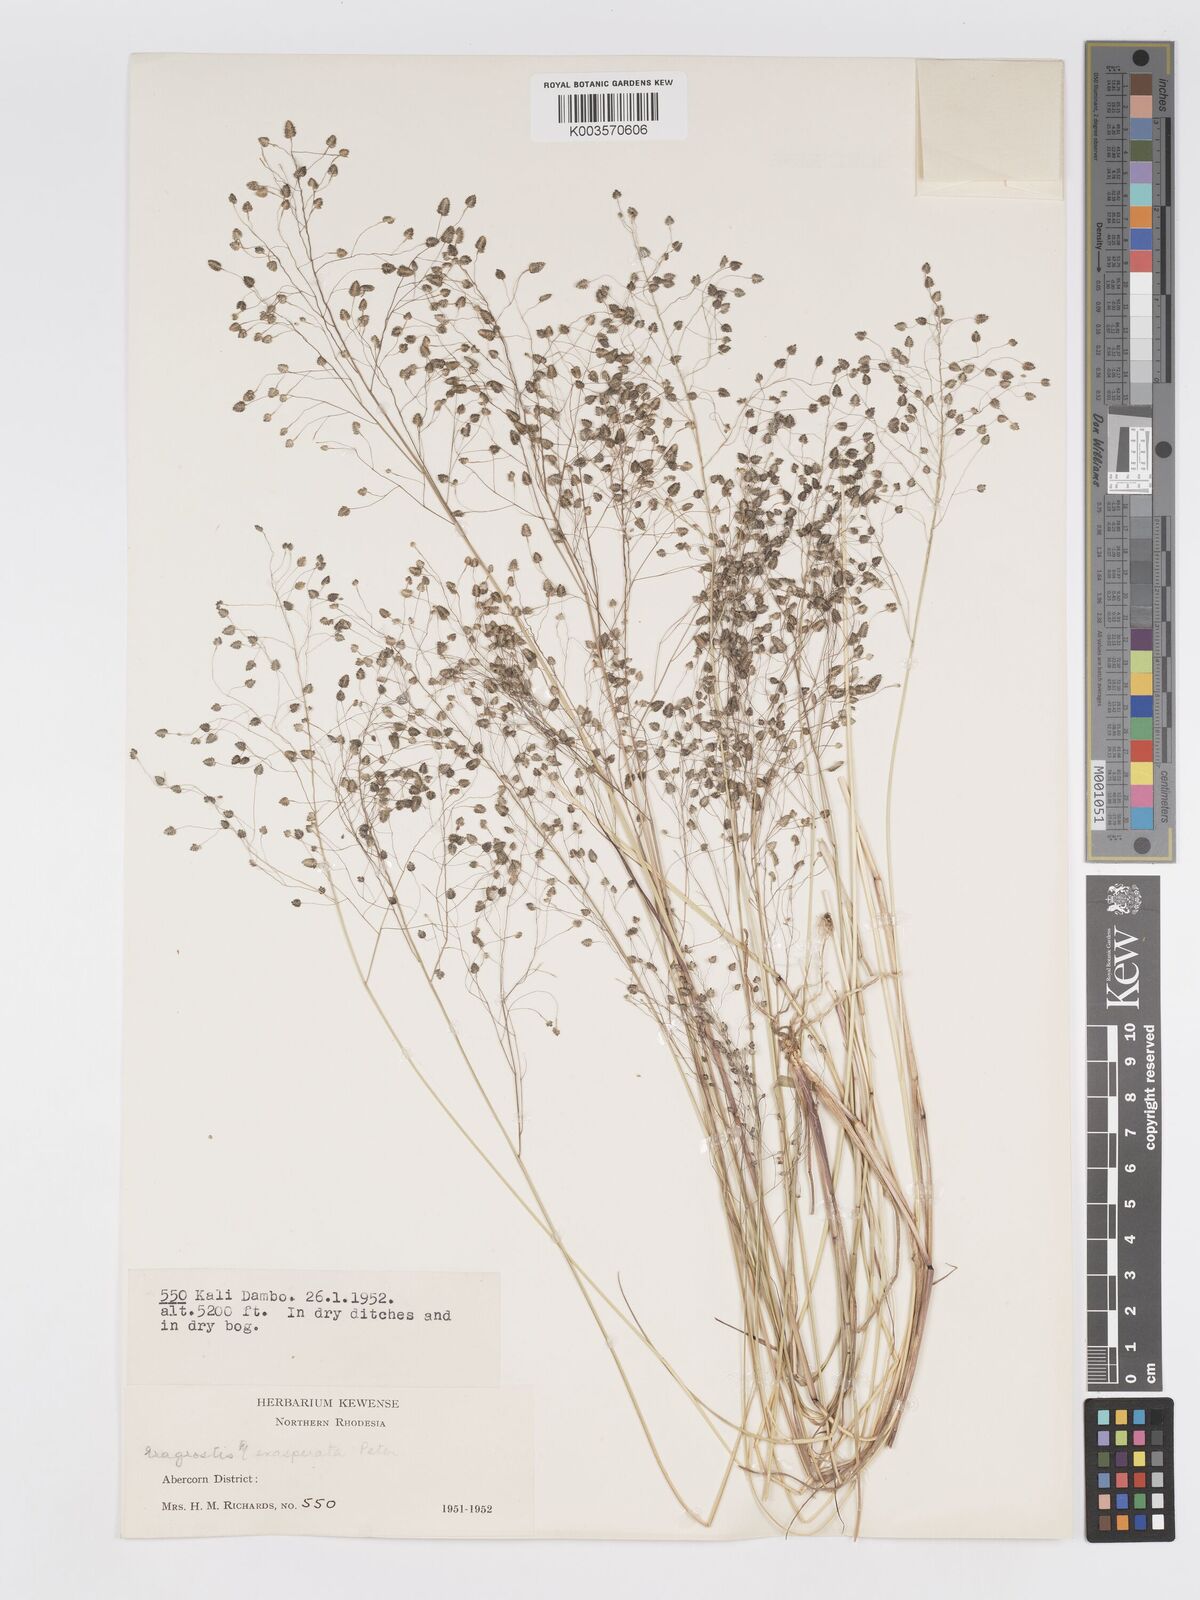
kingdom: Plantae
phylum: Tracheophyta
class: Liliopsida
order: Poales
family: Poaceae
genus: Eragrostis
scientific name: Eragrostis exasperata
